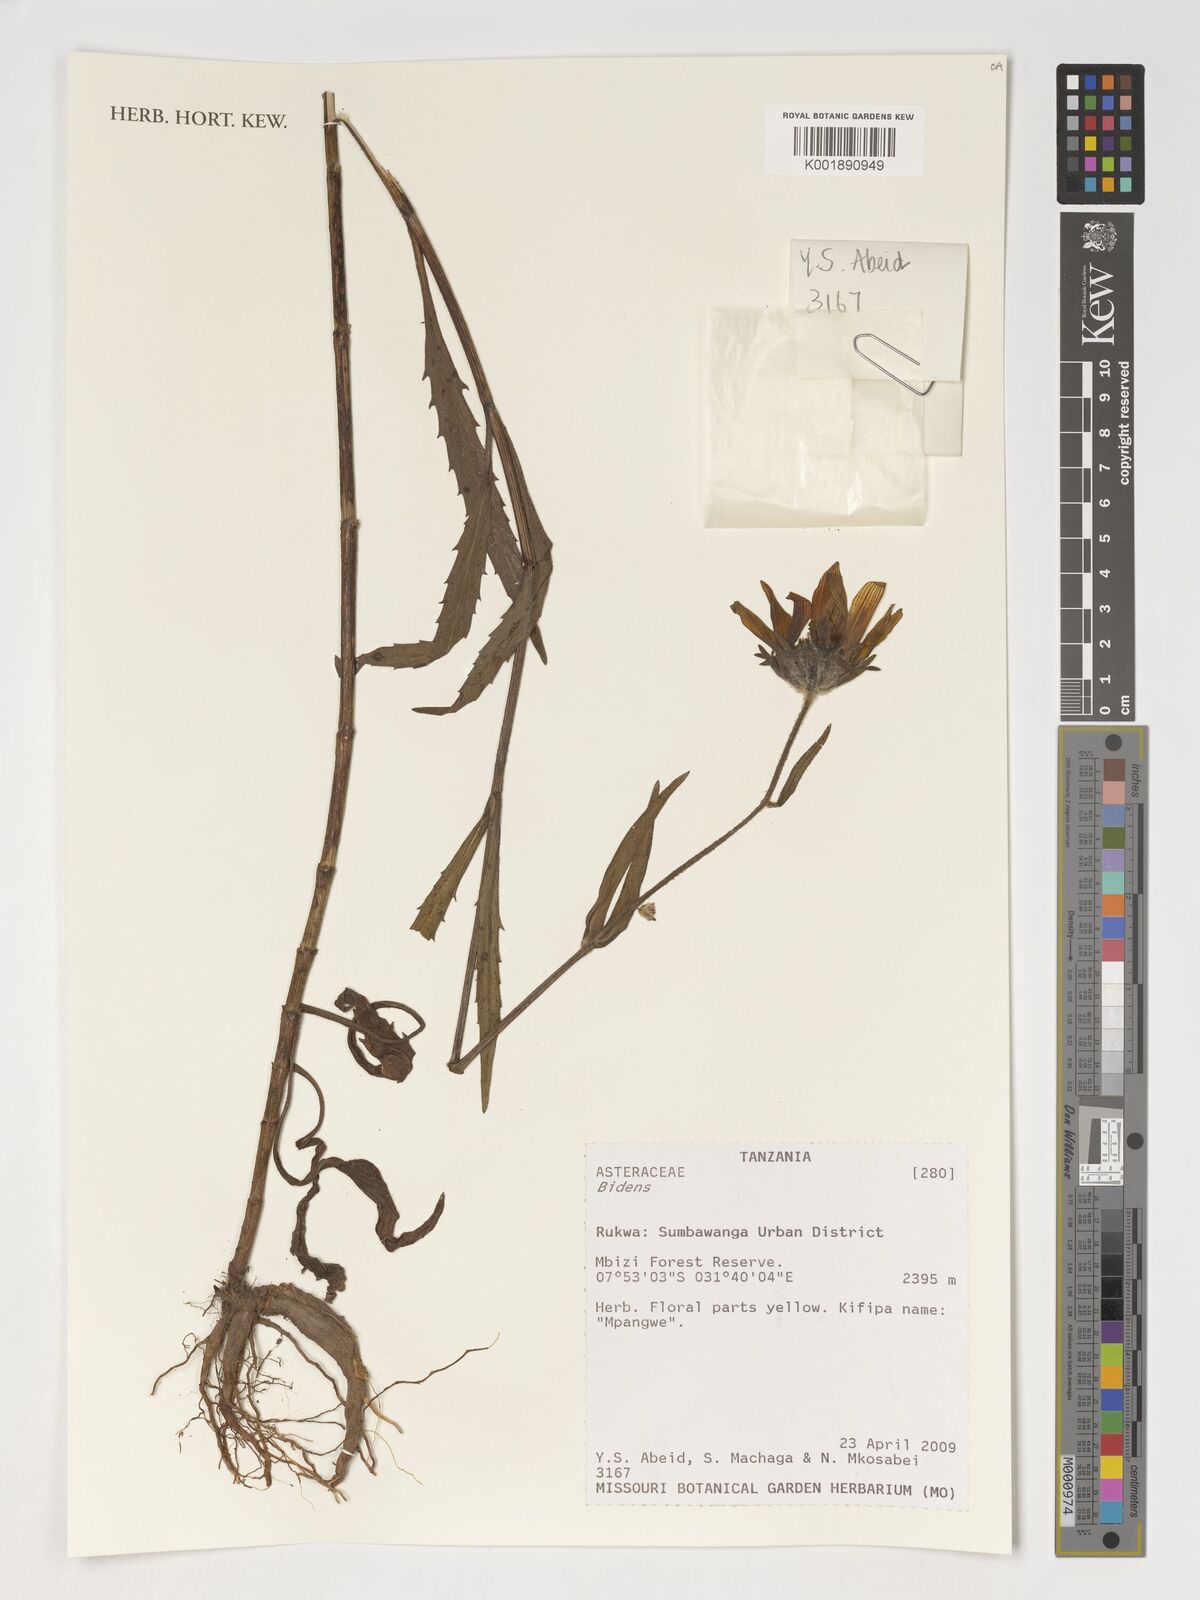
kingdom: Plantae
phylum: Tracheophyta
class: Magnoliopsida
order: Asterales
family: Asteraceae
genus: Bidens
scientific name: Bidens
